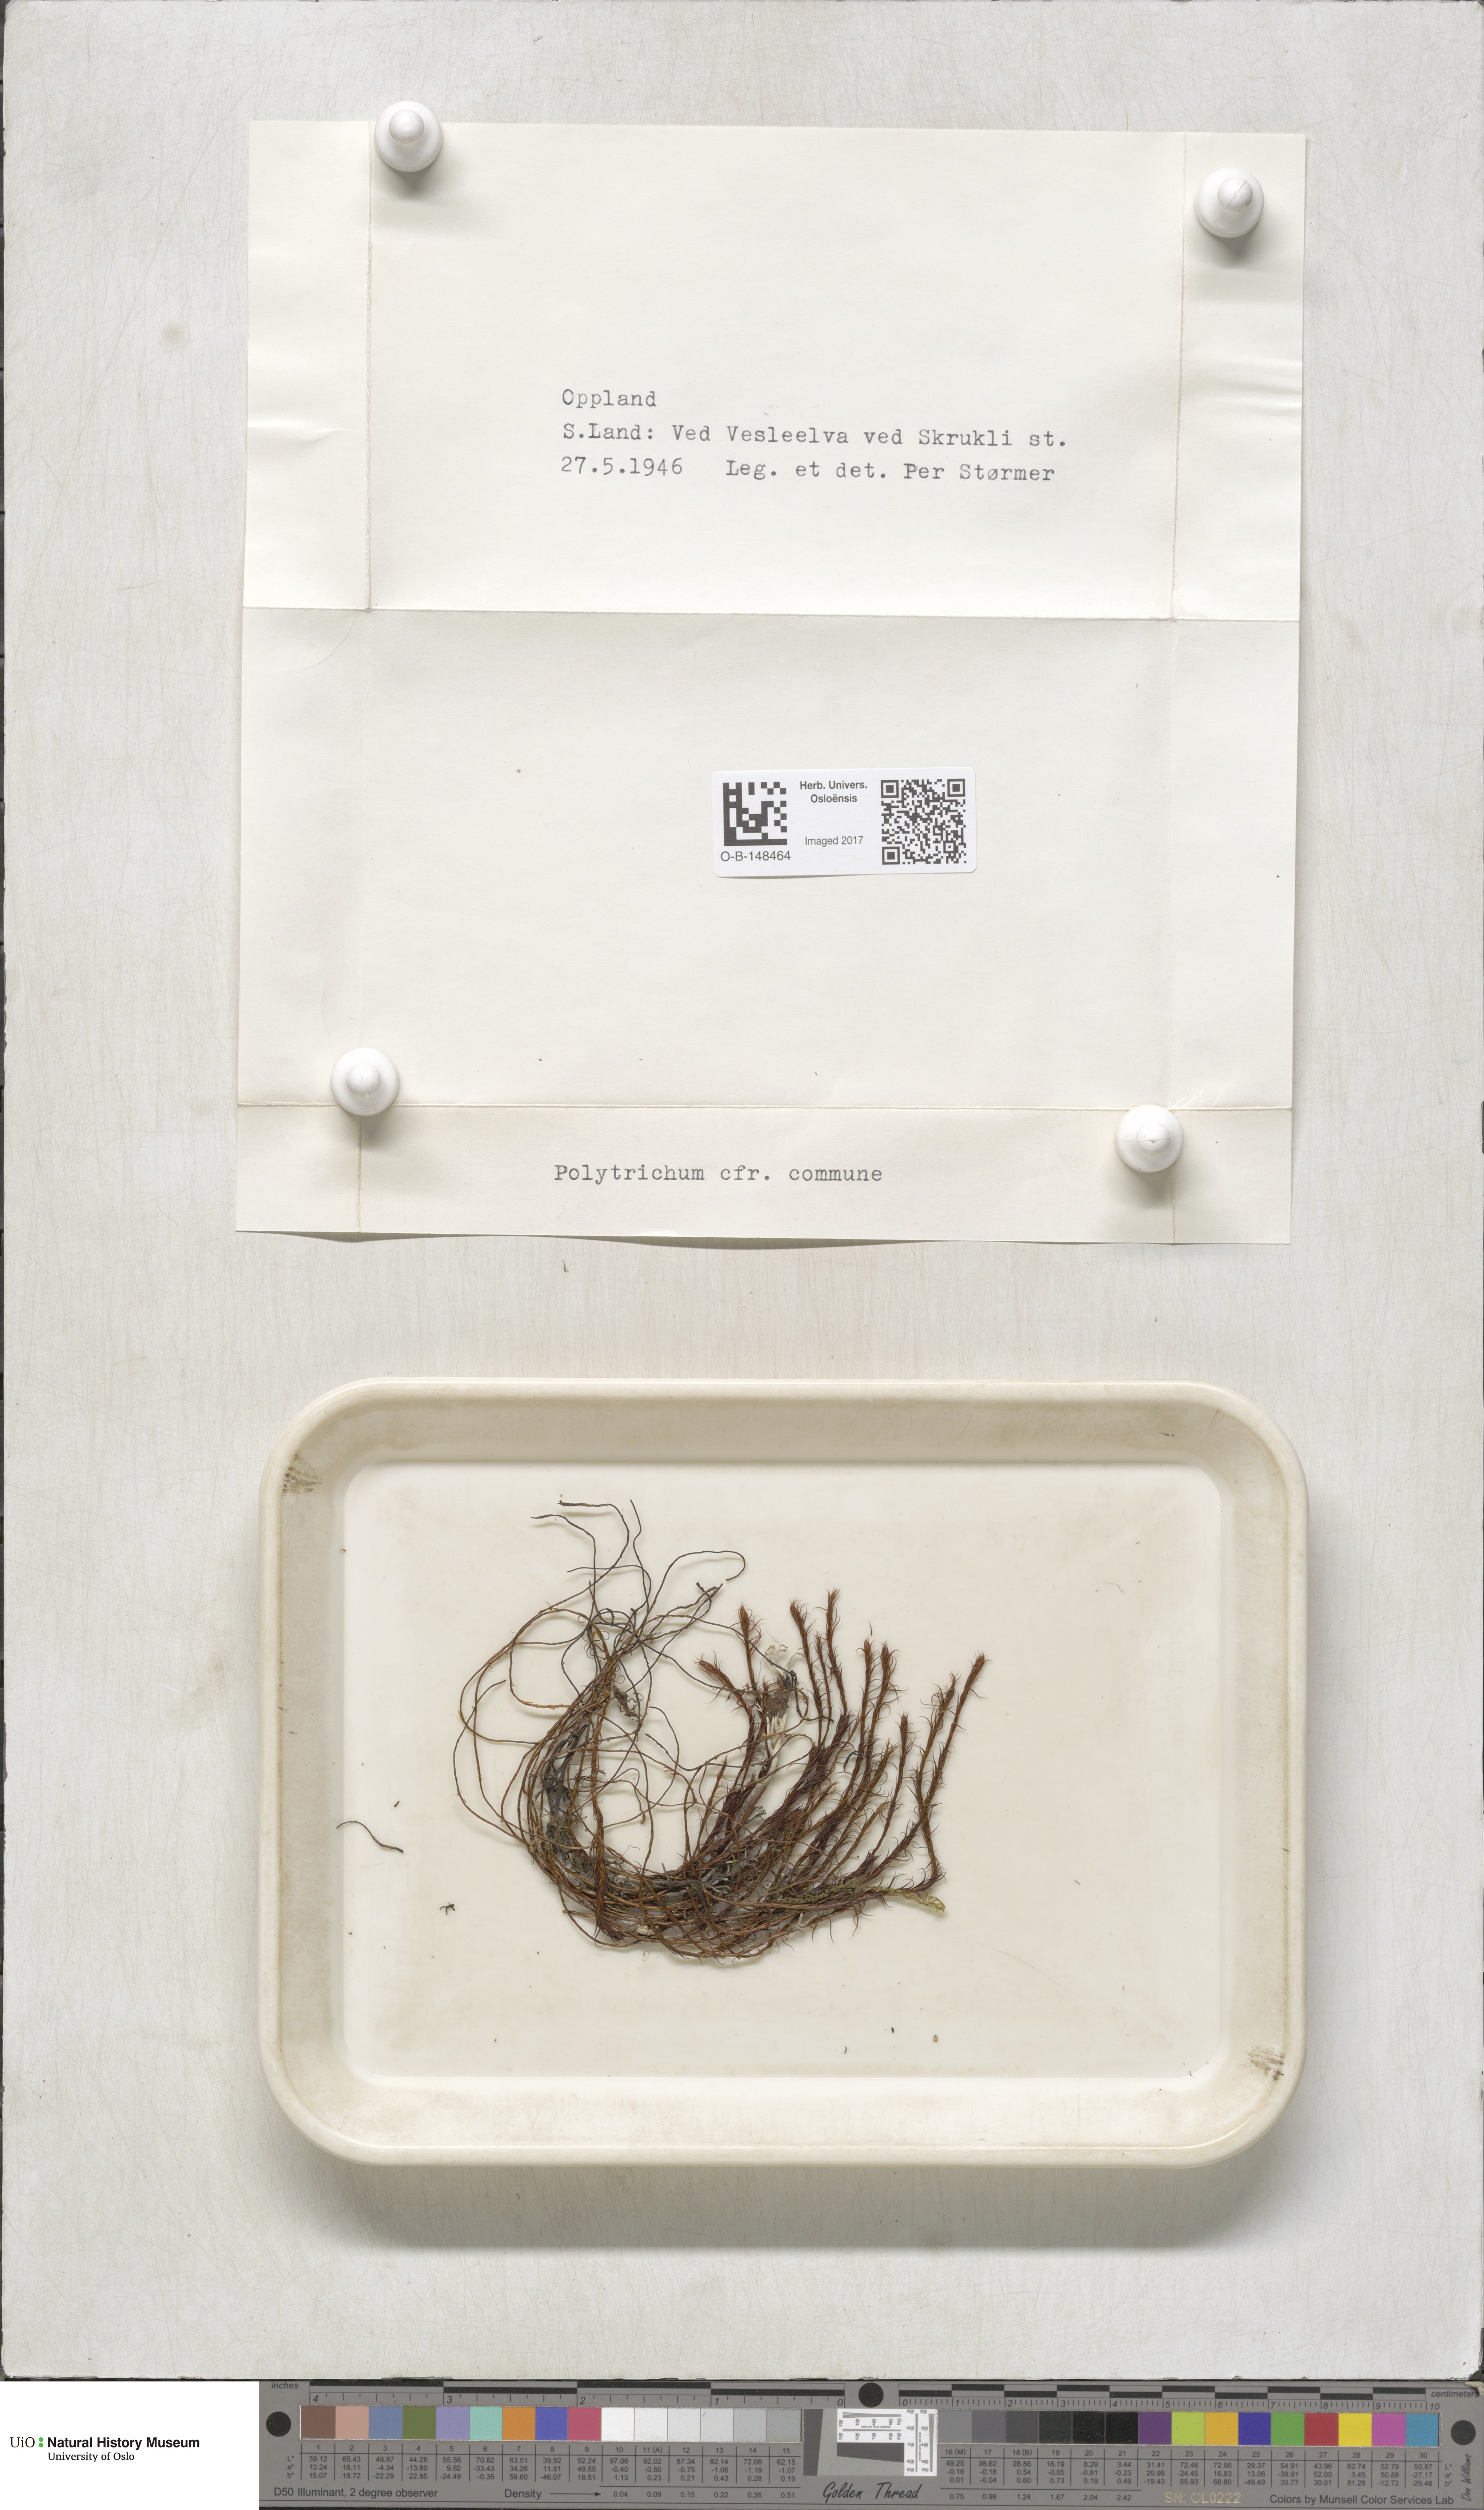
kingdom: Plantae
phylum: Bryophyta
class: Polytrichopsida
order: Polytrichales
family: Polytrichaceae
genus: Polytrichum
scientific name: Polytrichum commune
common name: Common haircap
